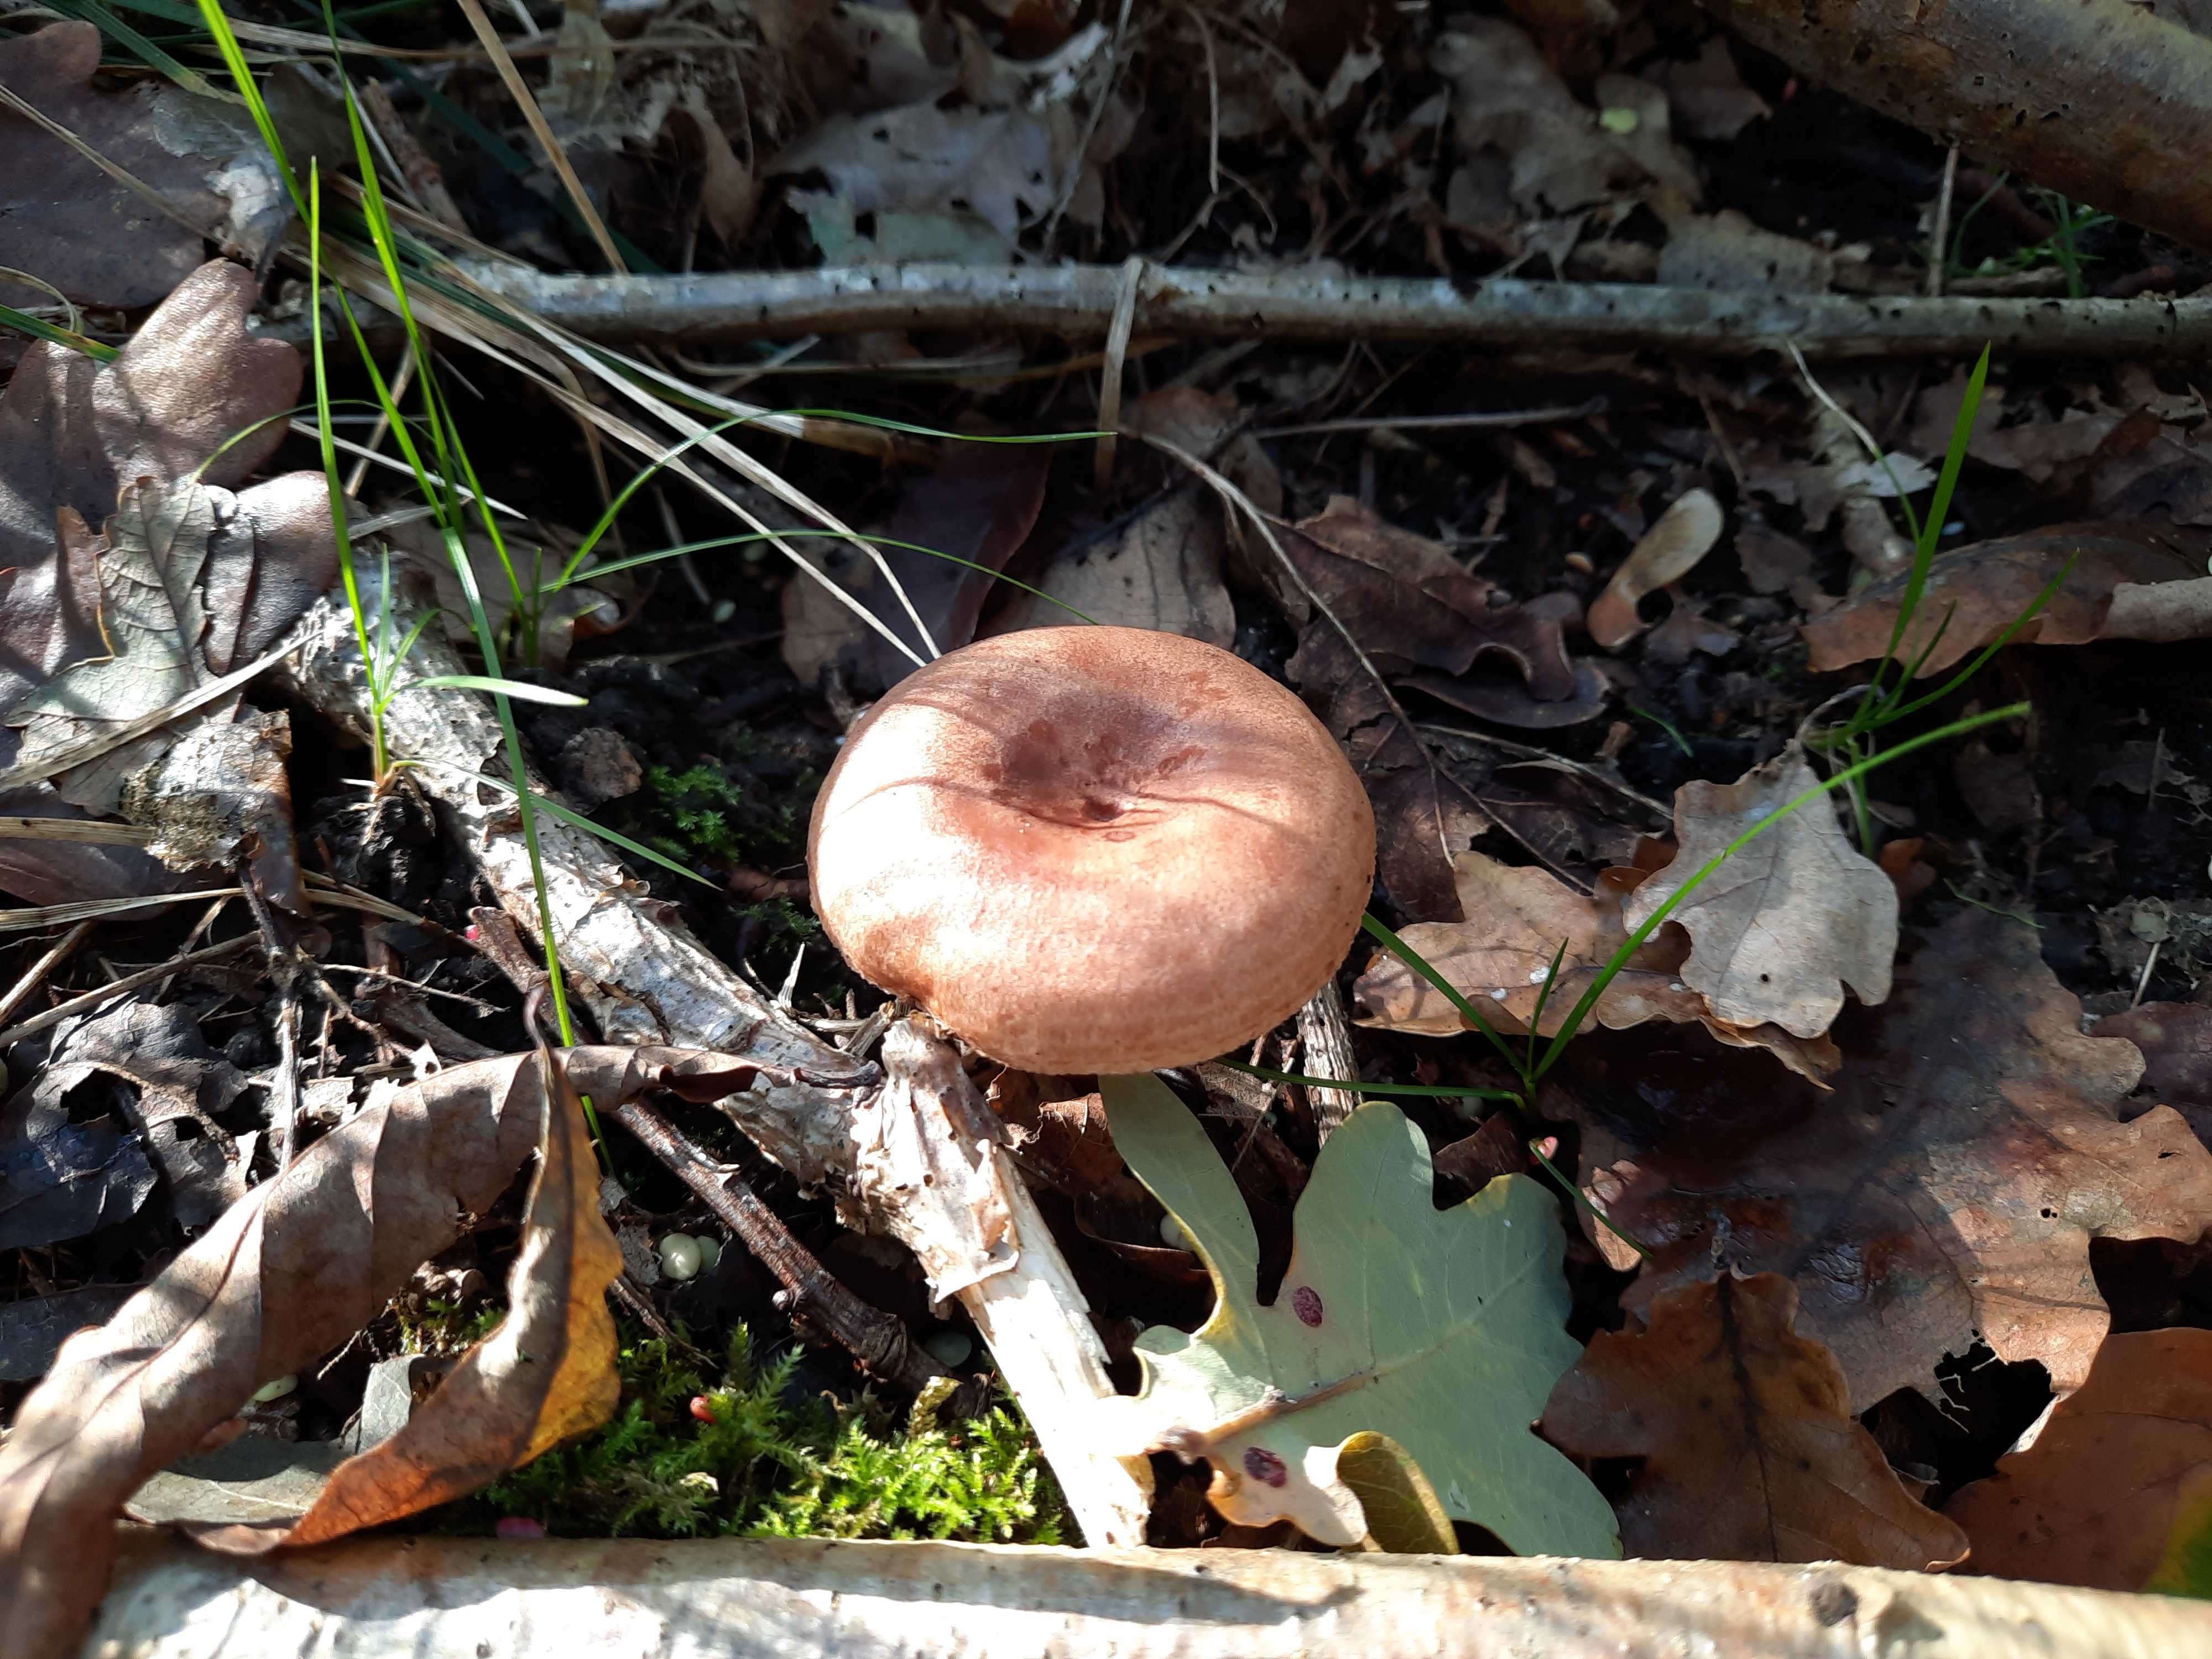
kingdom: Fungi
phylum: Basidiomycota
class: Agaricomycetes
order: Russulales
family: Russulaceae
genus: Lactarius
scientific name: Lactarius quietus
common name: ege-mælkehat
